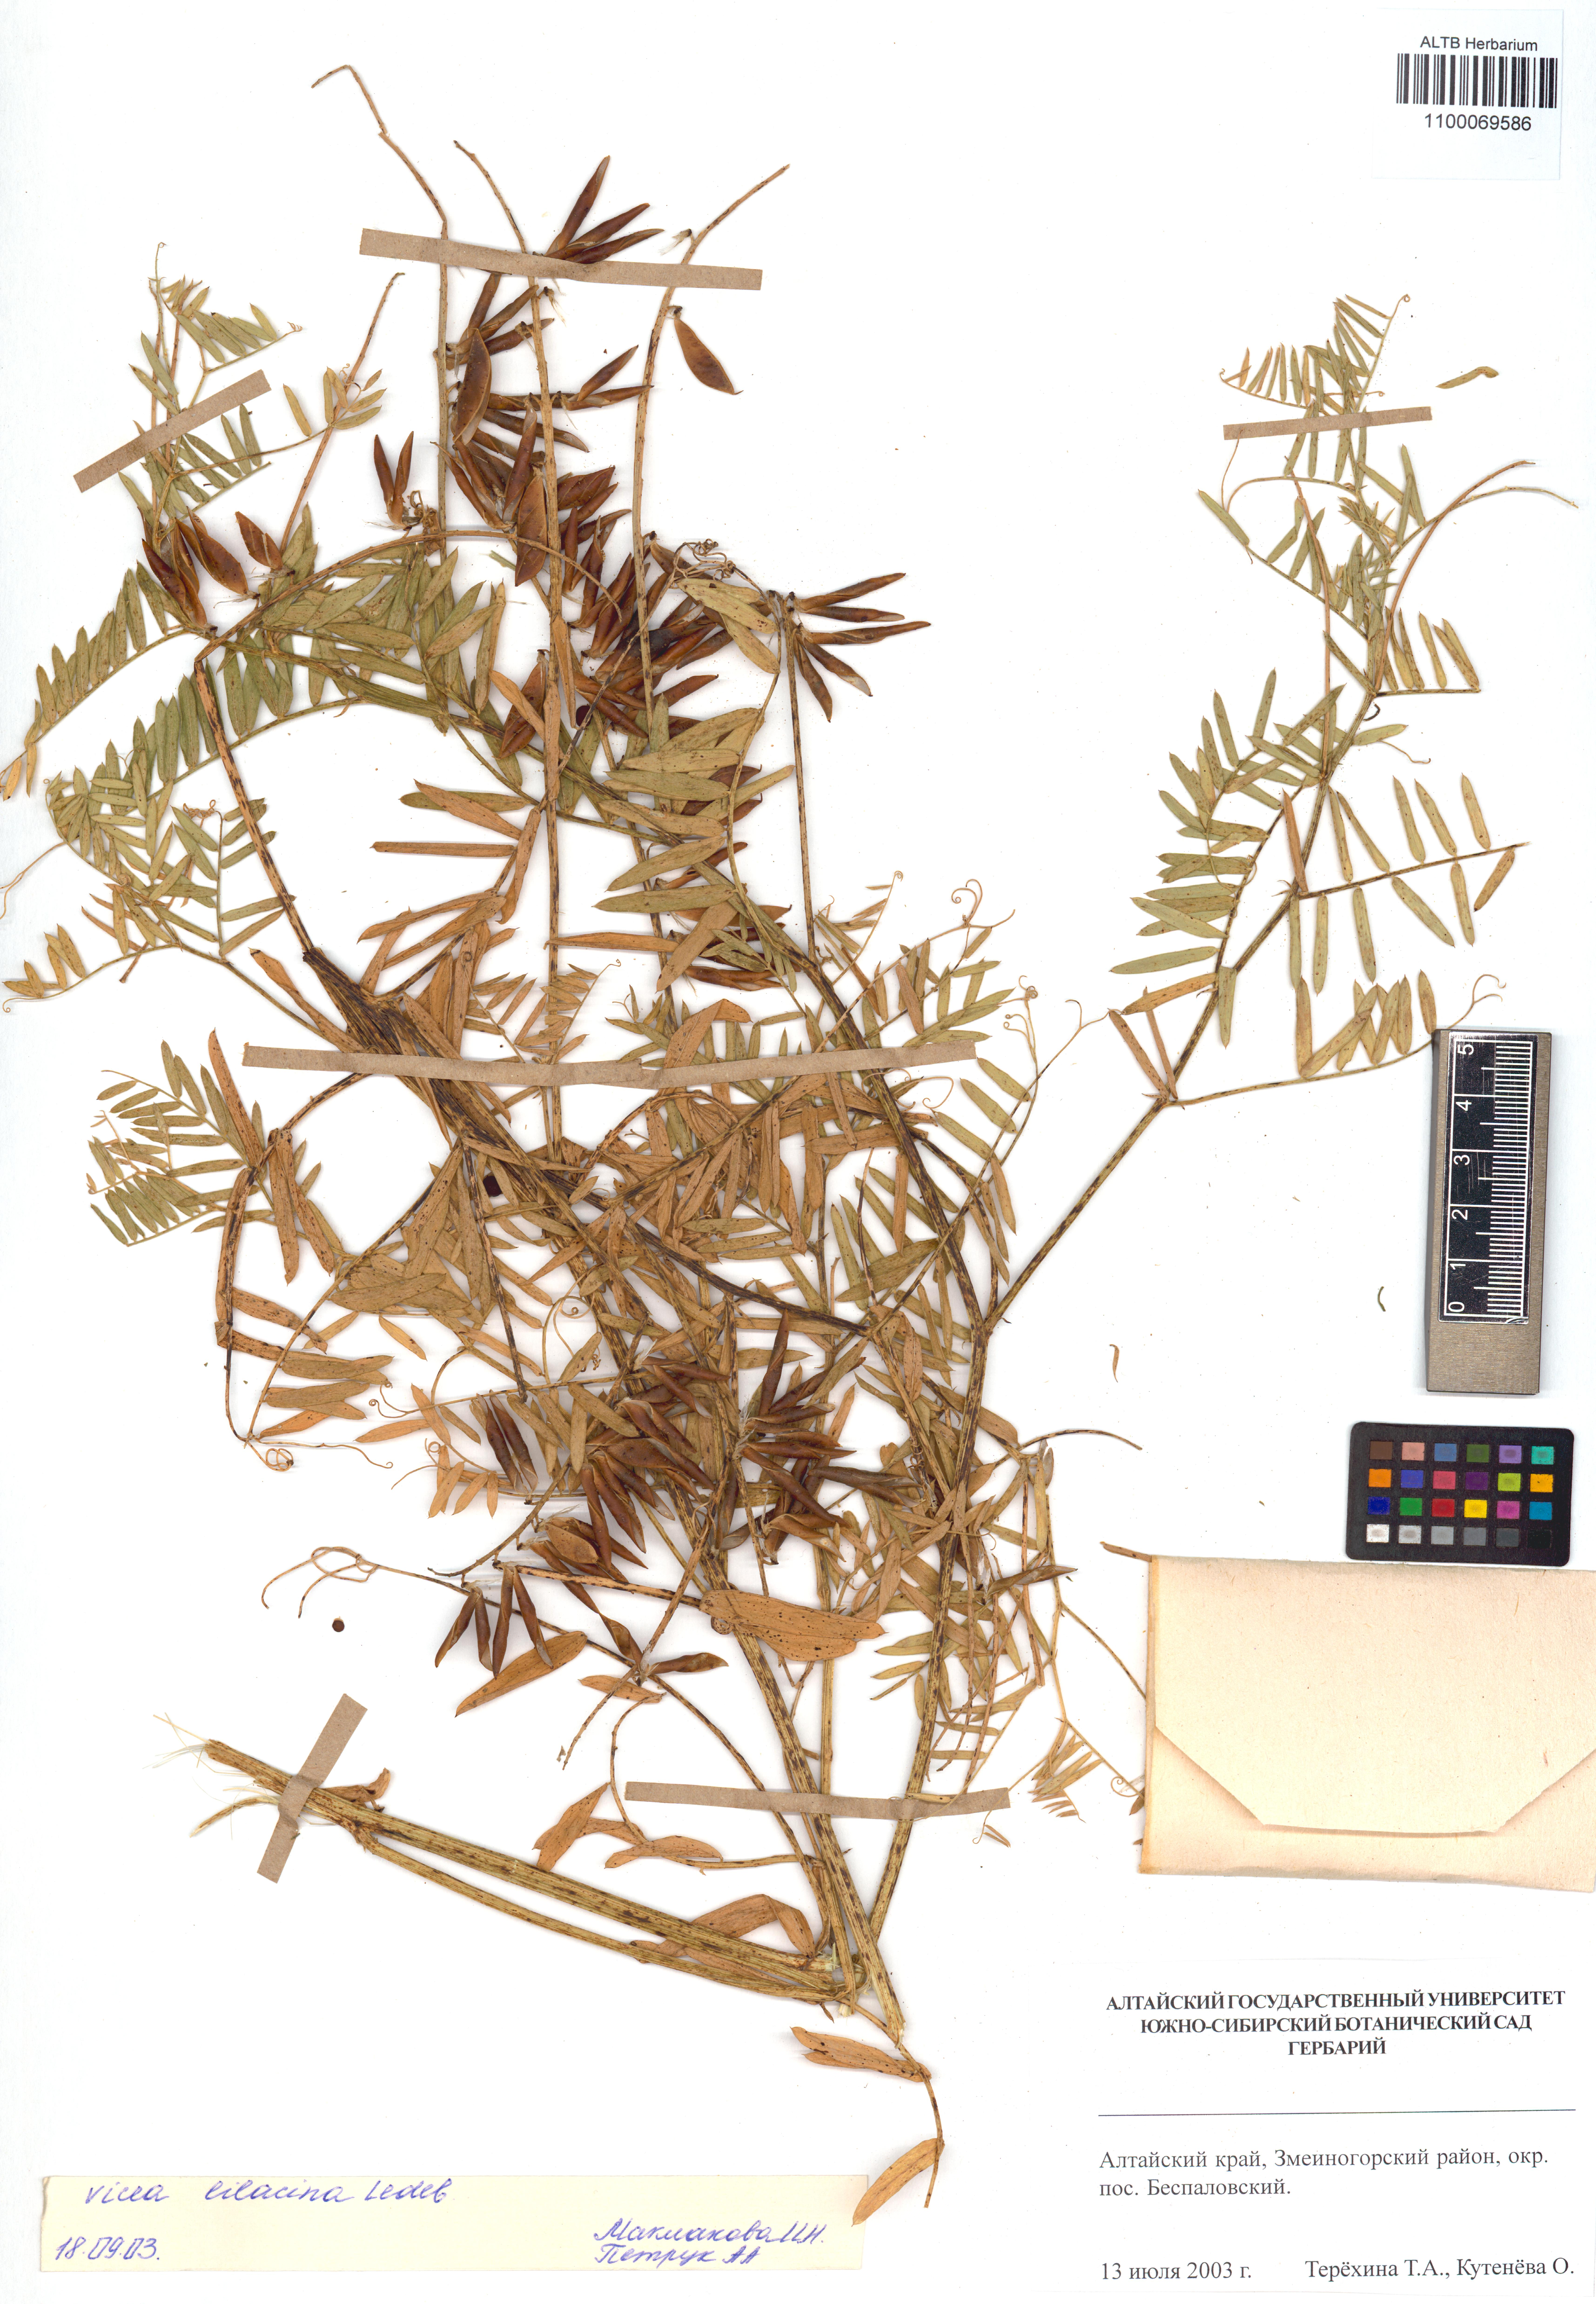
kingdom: Plantae
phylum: Tracheophyta
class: Magnoliopsida
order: Fabales
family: Fabaceae
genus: Vicia
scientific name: Vicia lilacina
